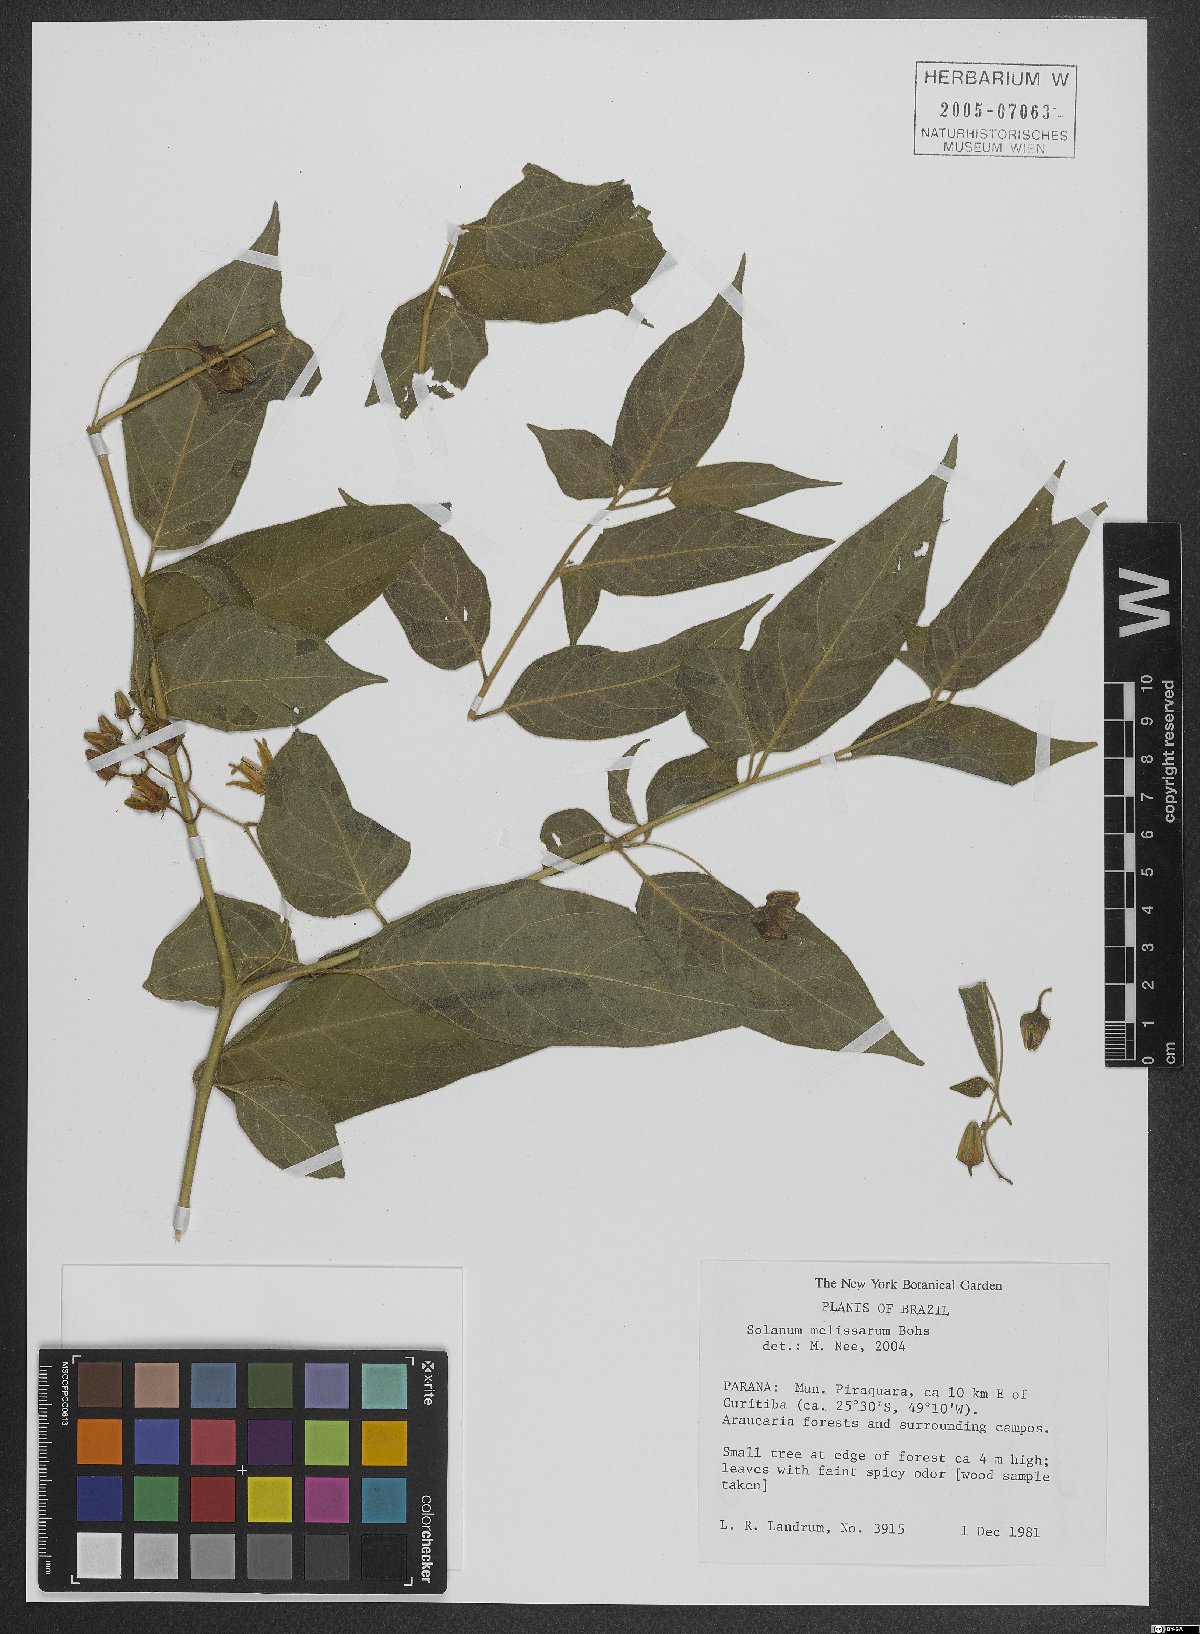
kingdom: Plantae
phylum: Tracheophyta
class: Magnoliopsida
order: Solanales
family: Solanaceae
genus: Solanum
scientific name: Solanum melissarum
